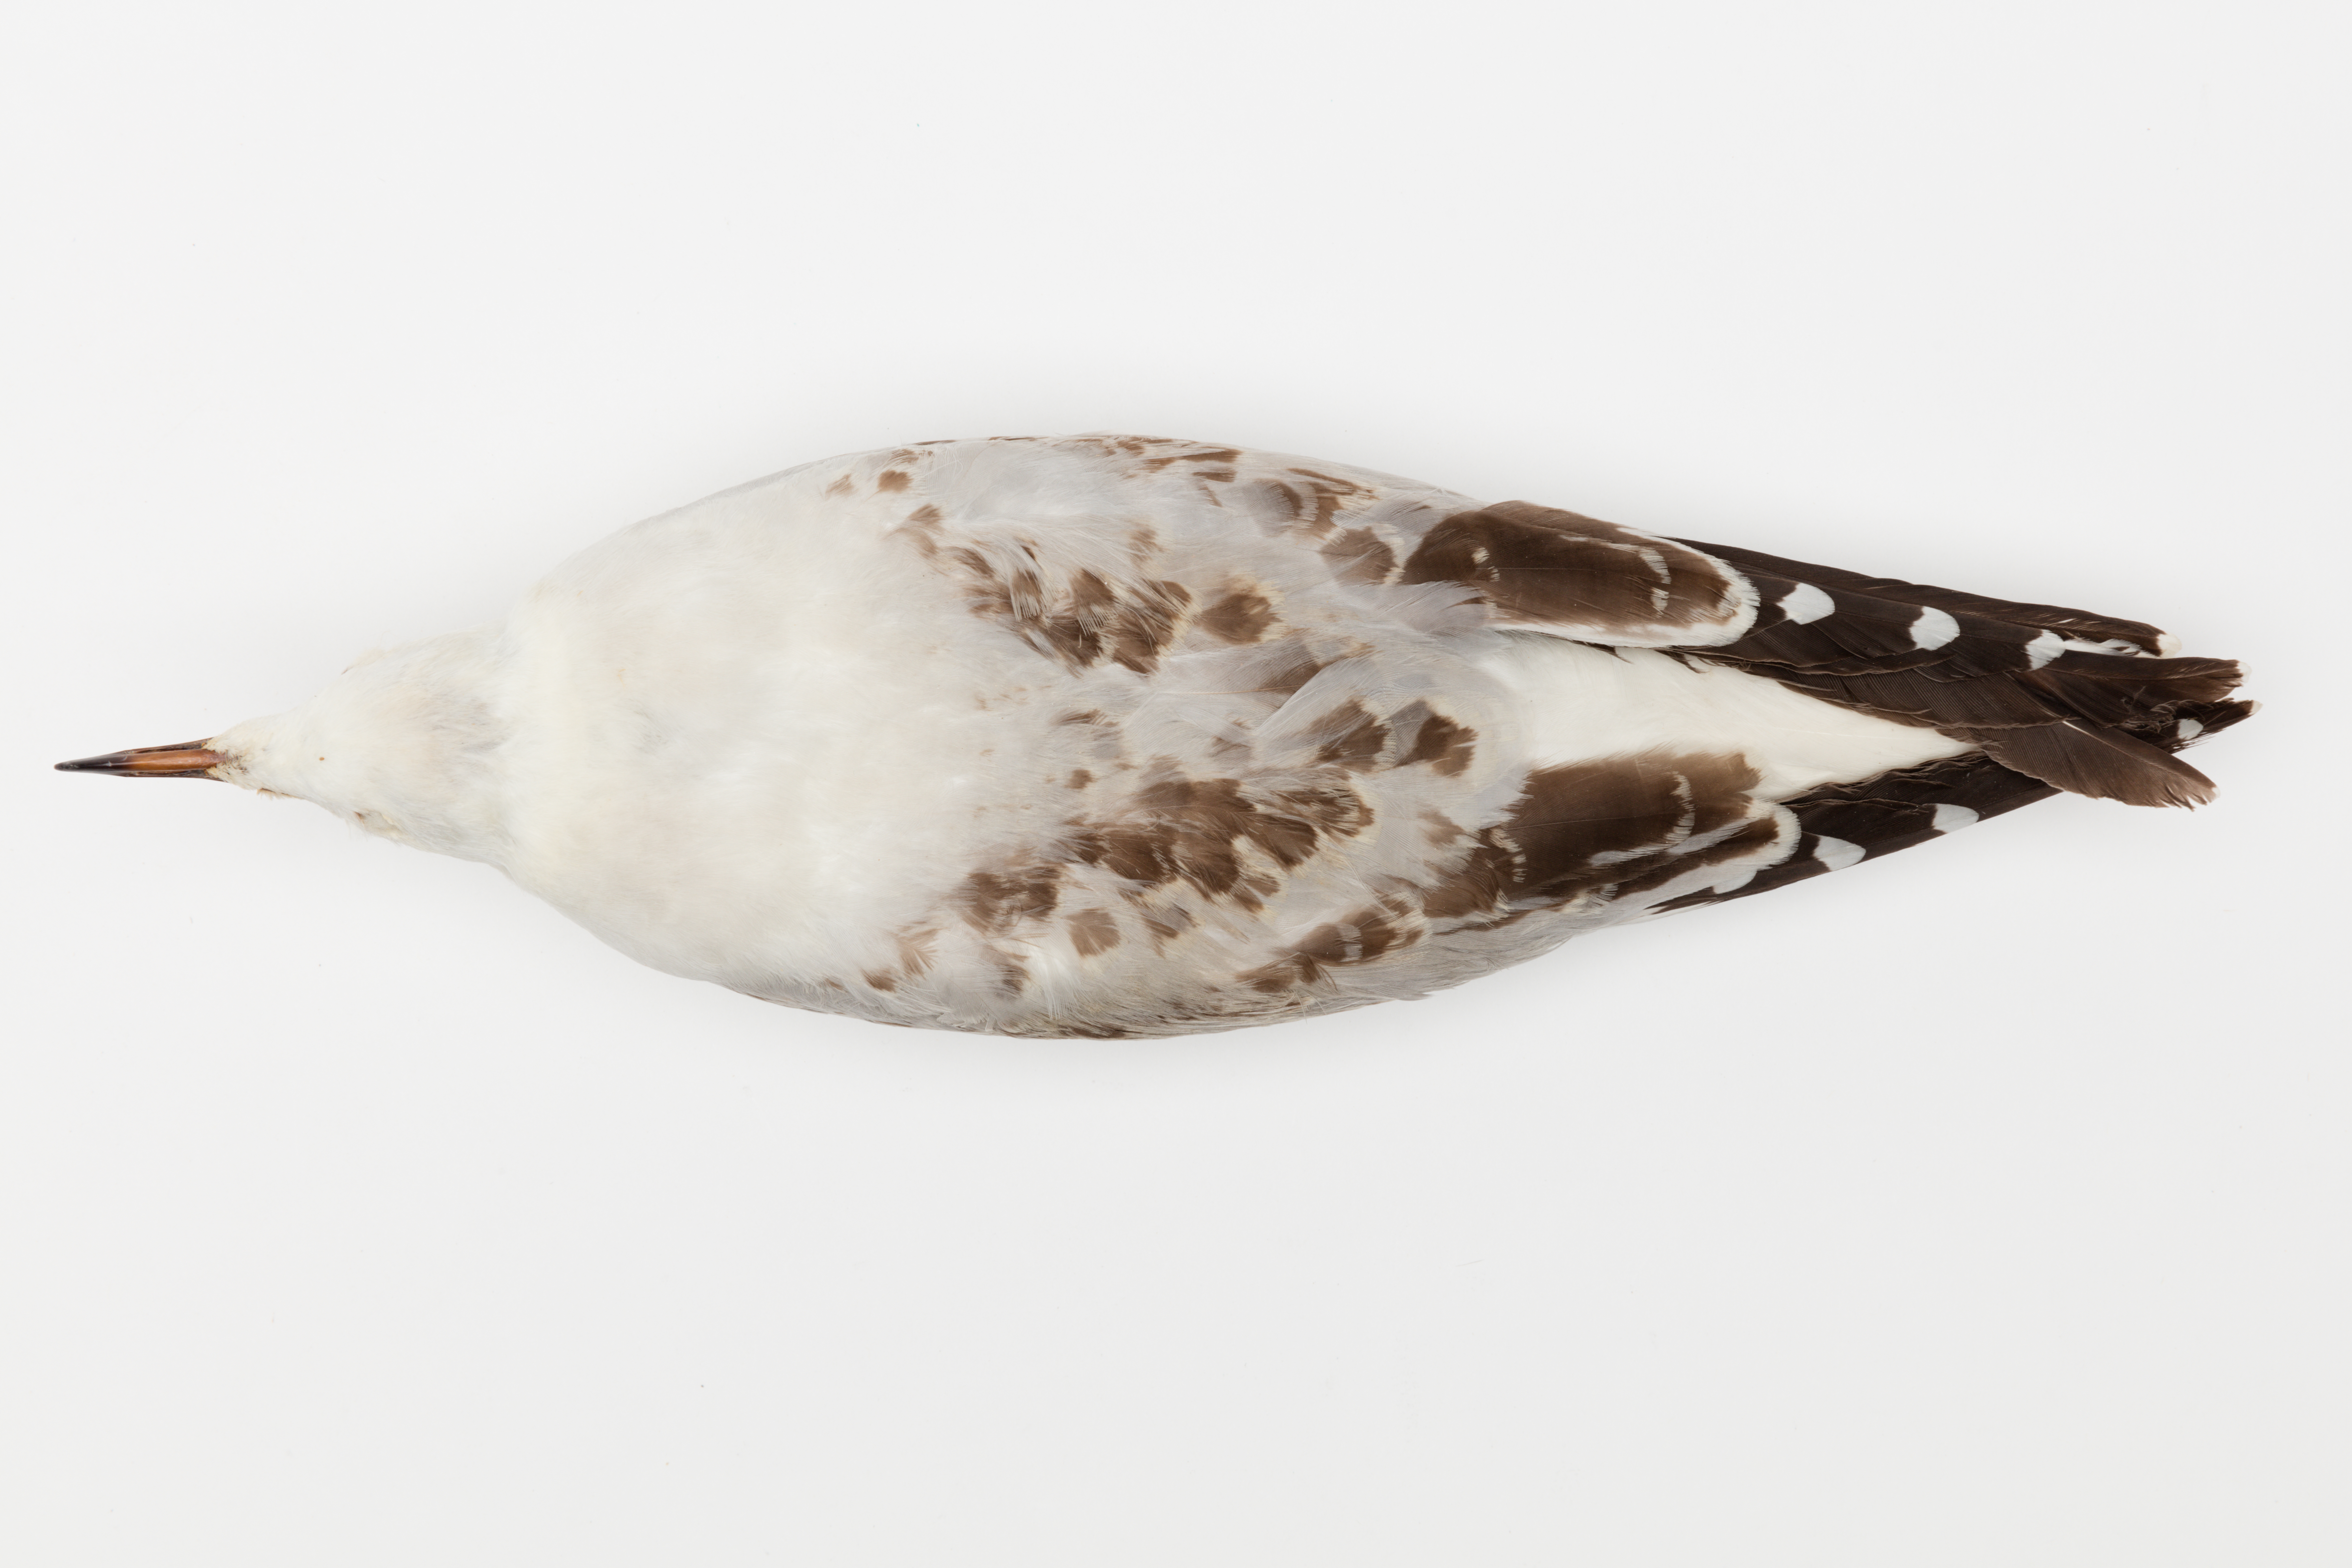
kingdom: Animalia
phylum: Chordata
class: Aves
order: Charadriiformes
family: Laridae
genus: Chroicocephalus
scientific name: Chroicocephalus novaehollandiae
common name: Silver gull
